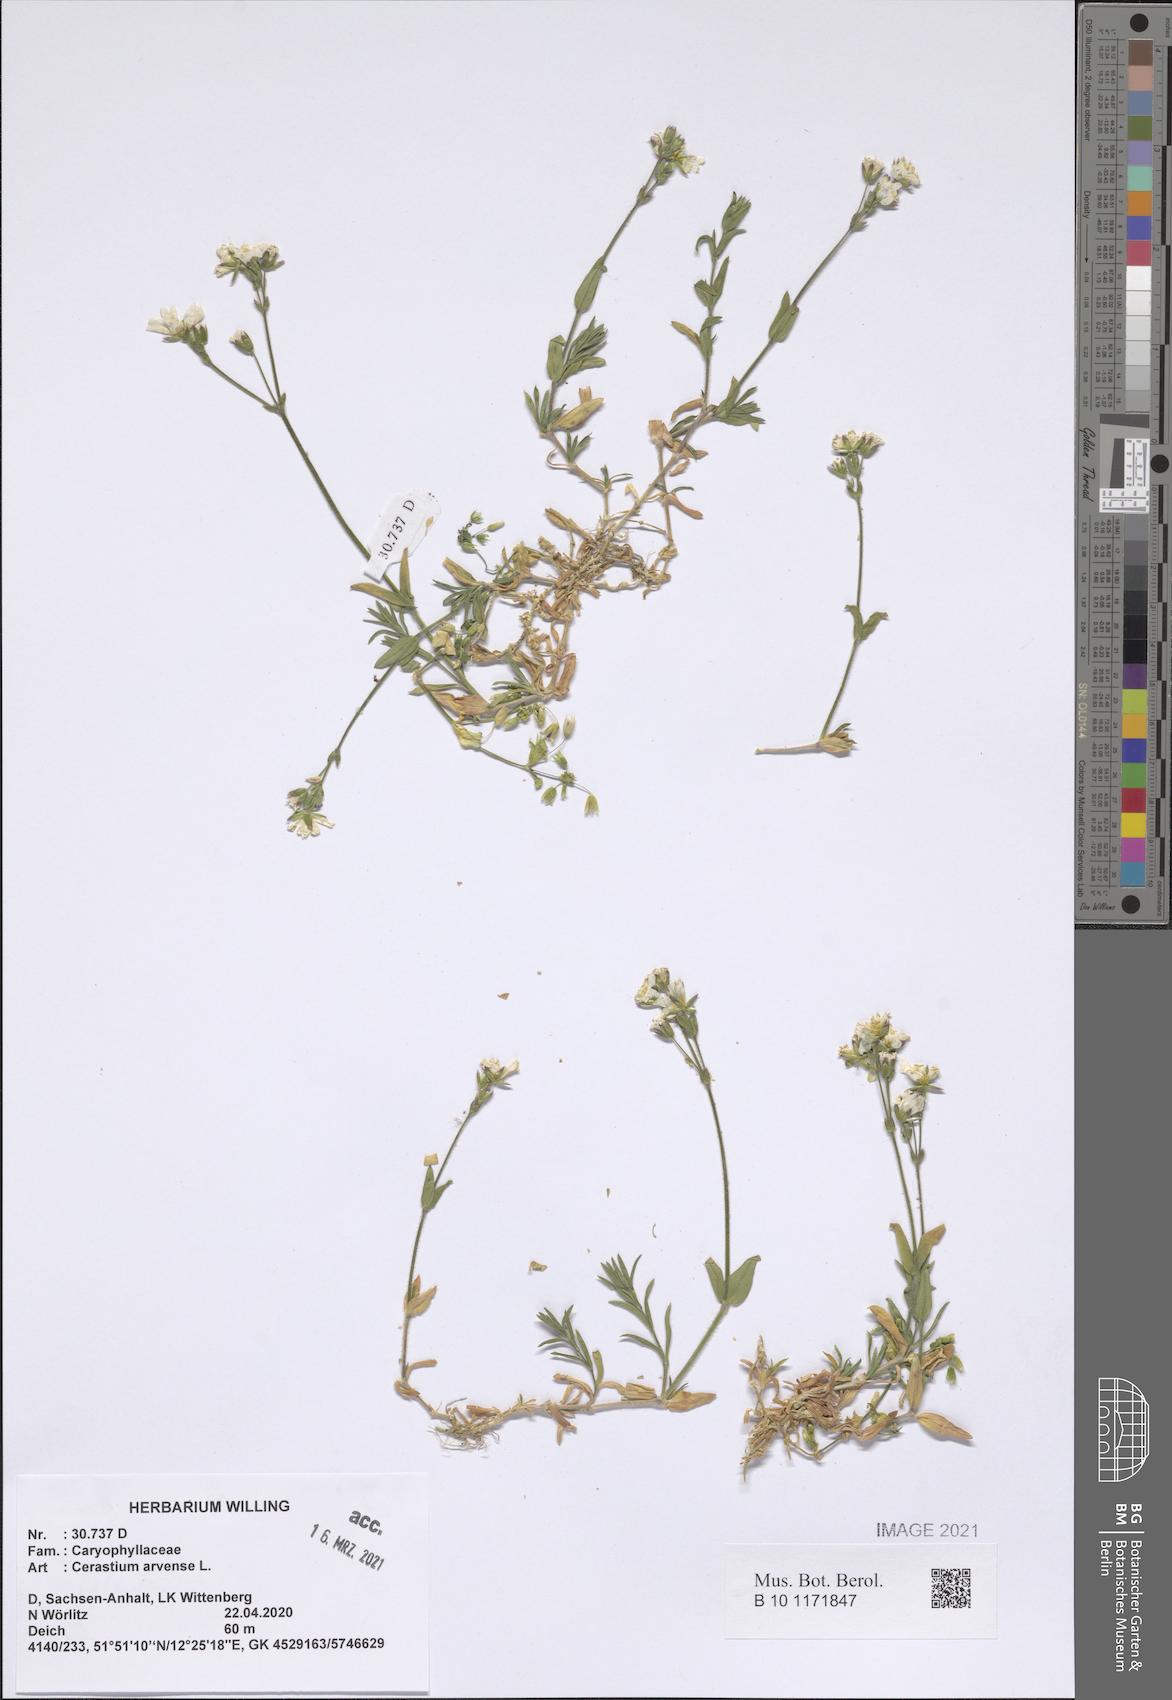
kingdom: Plantae
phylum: Tracheophyta
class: Magnoliopsida
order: Caryophyllales
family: Caryophyllaceae
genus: Cerastium
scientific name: Cerastium arvense
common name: Field mouse-ear
